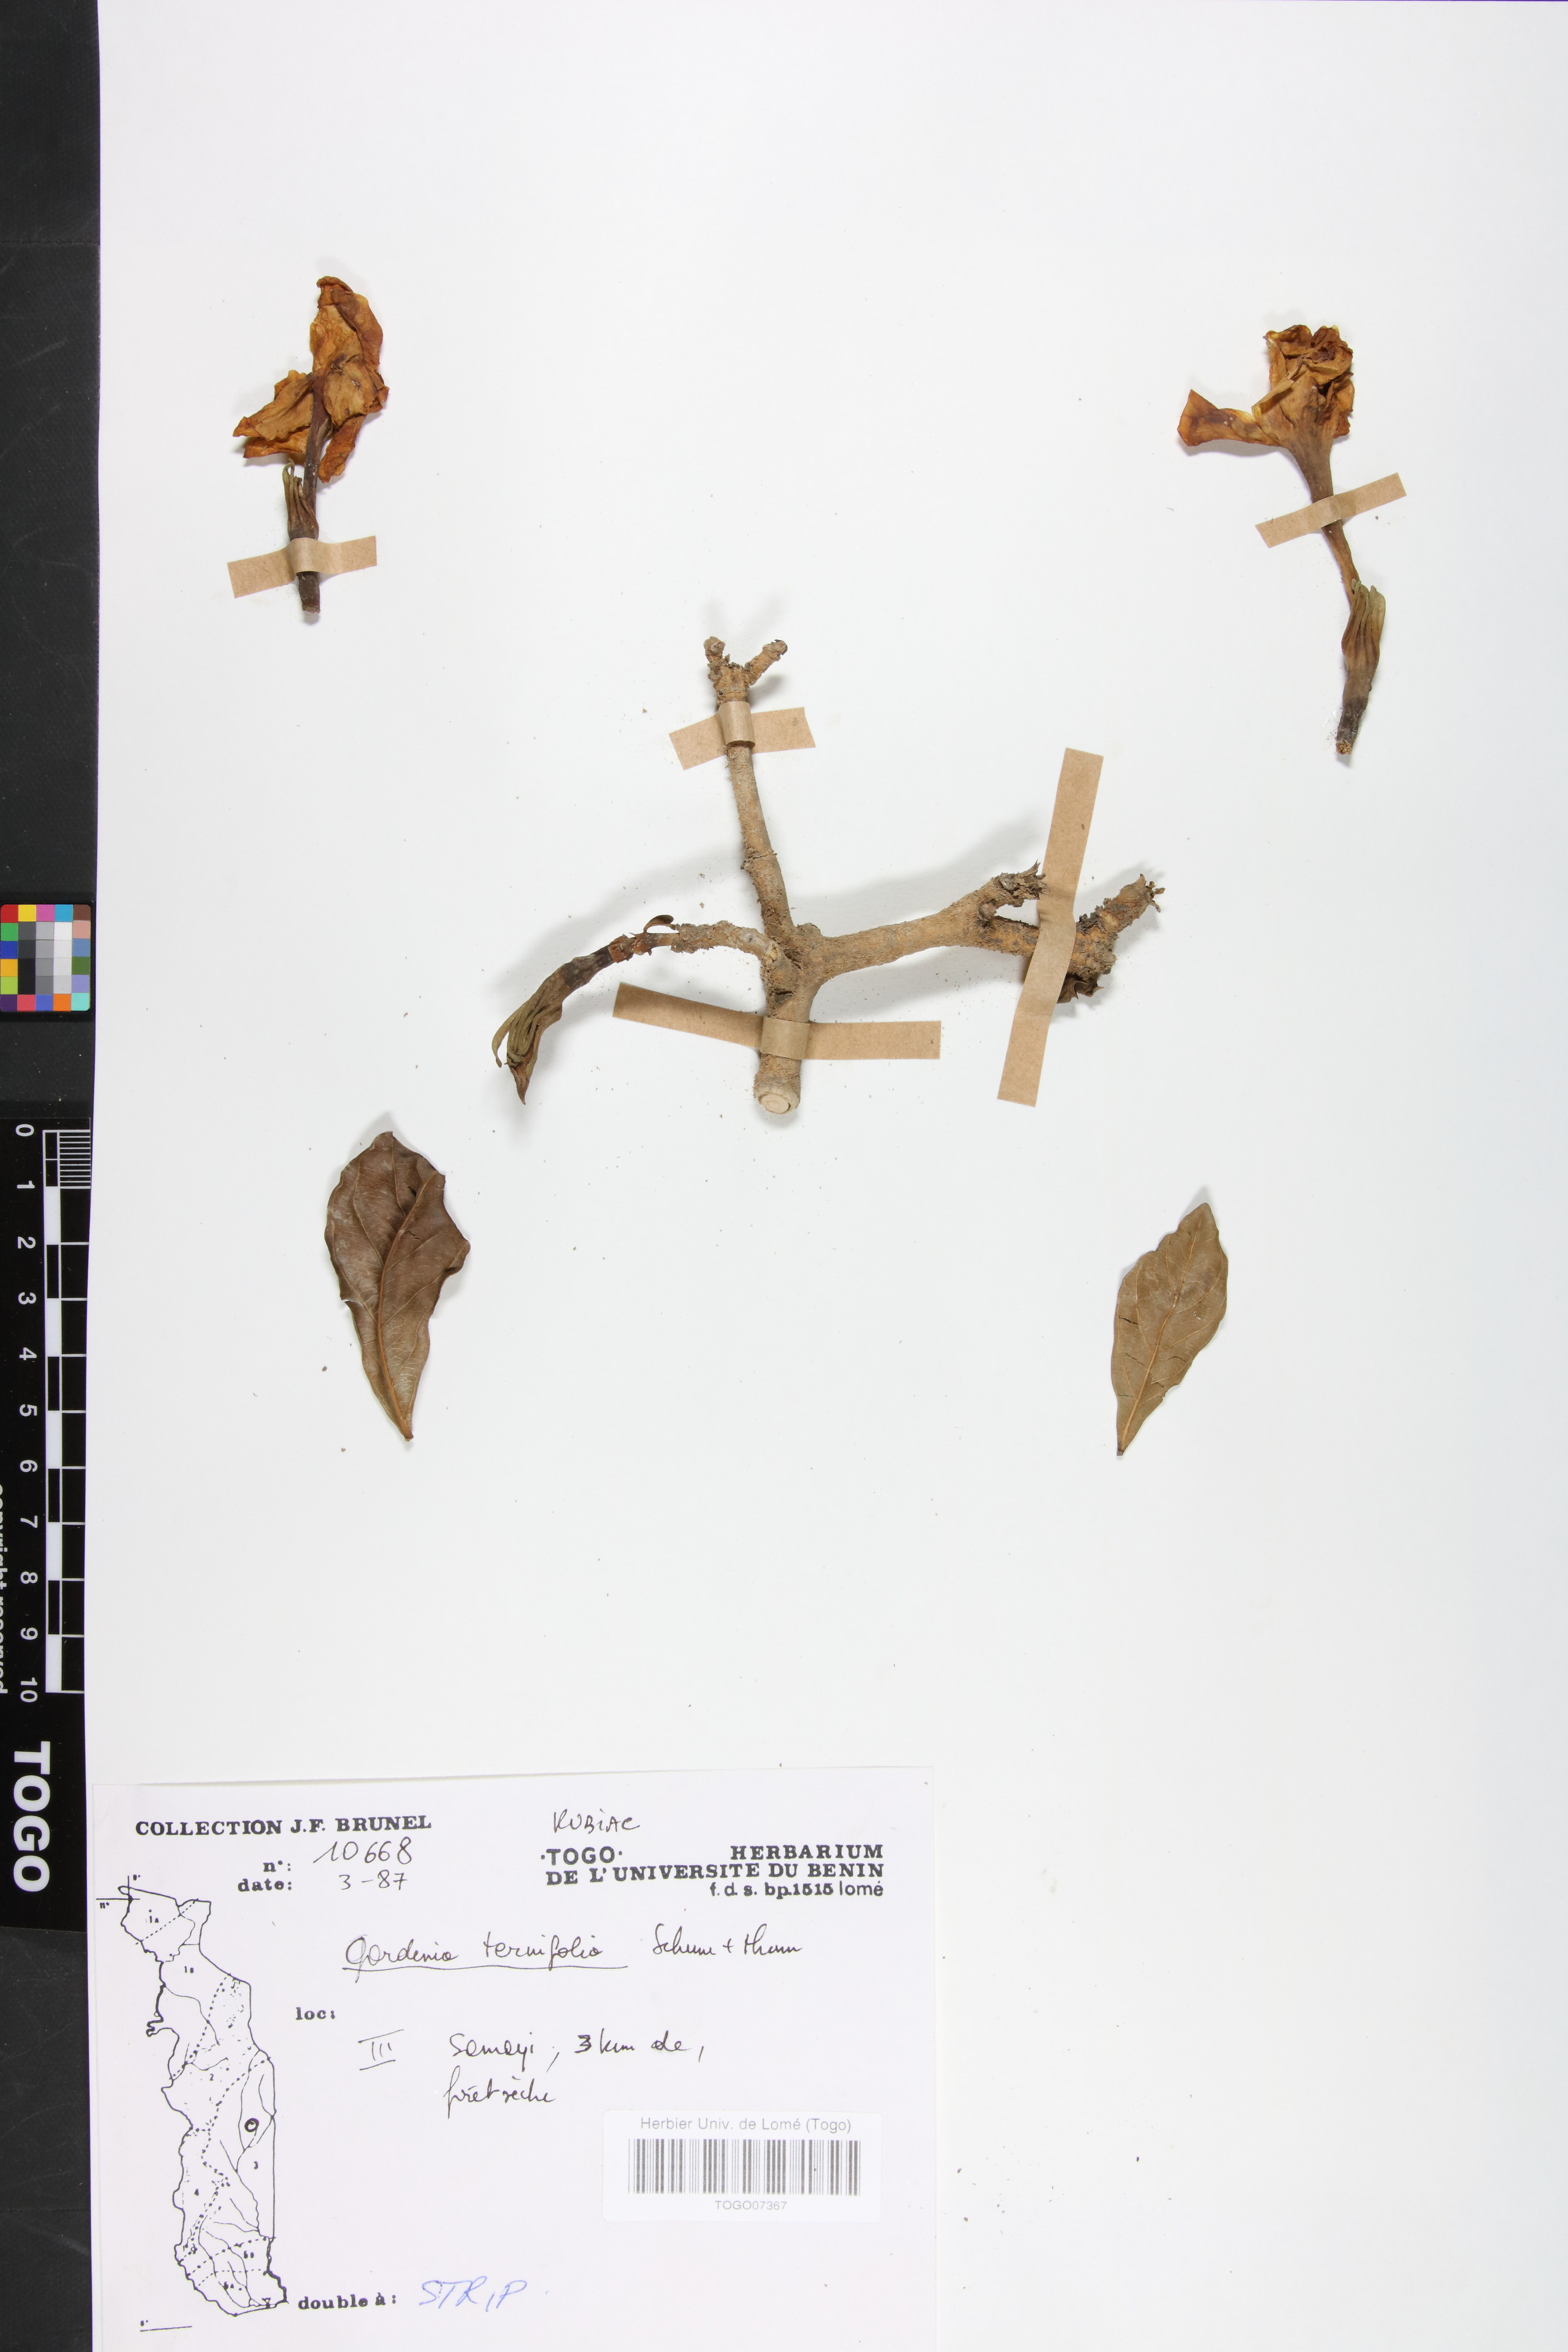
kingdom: Plantae
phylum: Tracheophyta
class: Magnoliopsida
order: Gentianales
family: Rubiaceae
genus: Gardenia
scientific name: Gardenia ternifolia
